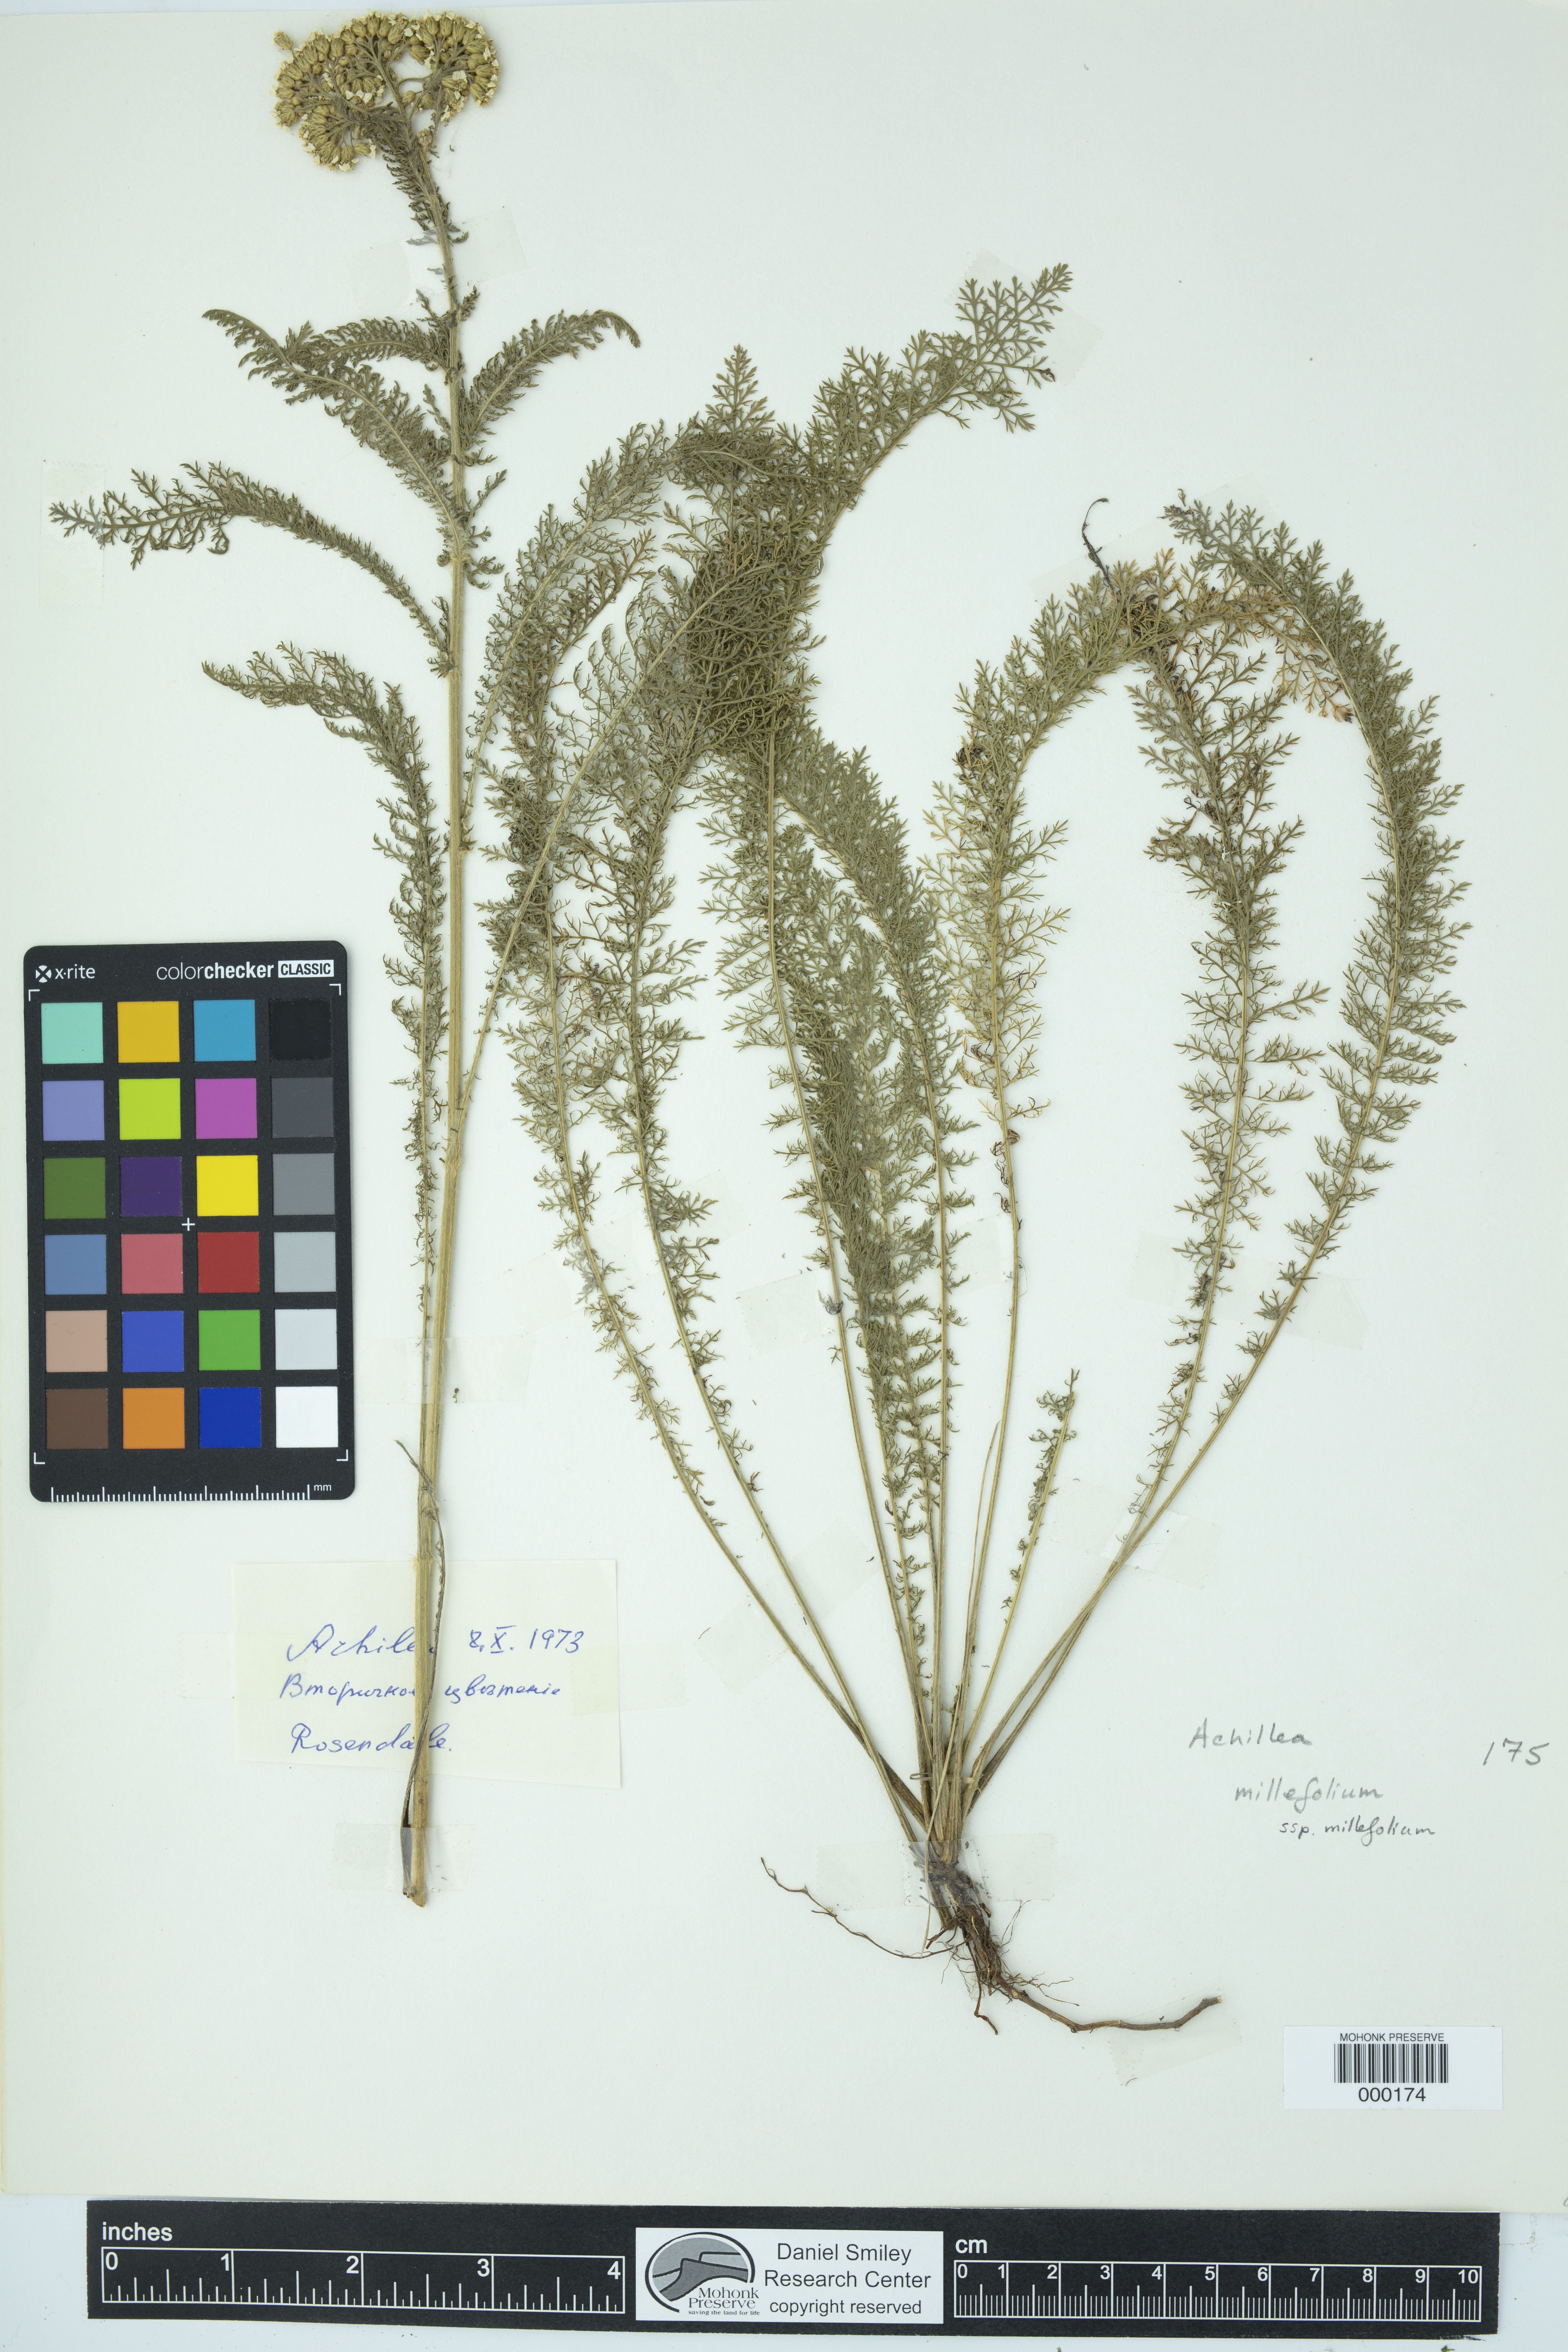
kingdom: Plantae
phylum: Tracheophyta
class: Magnoliopsida
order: Asterales
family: Asteraceae
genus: Achillea
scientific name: Achillea millefolium
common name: Yarrow
